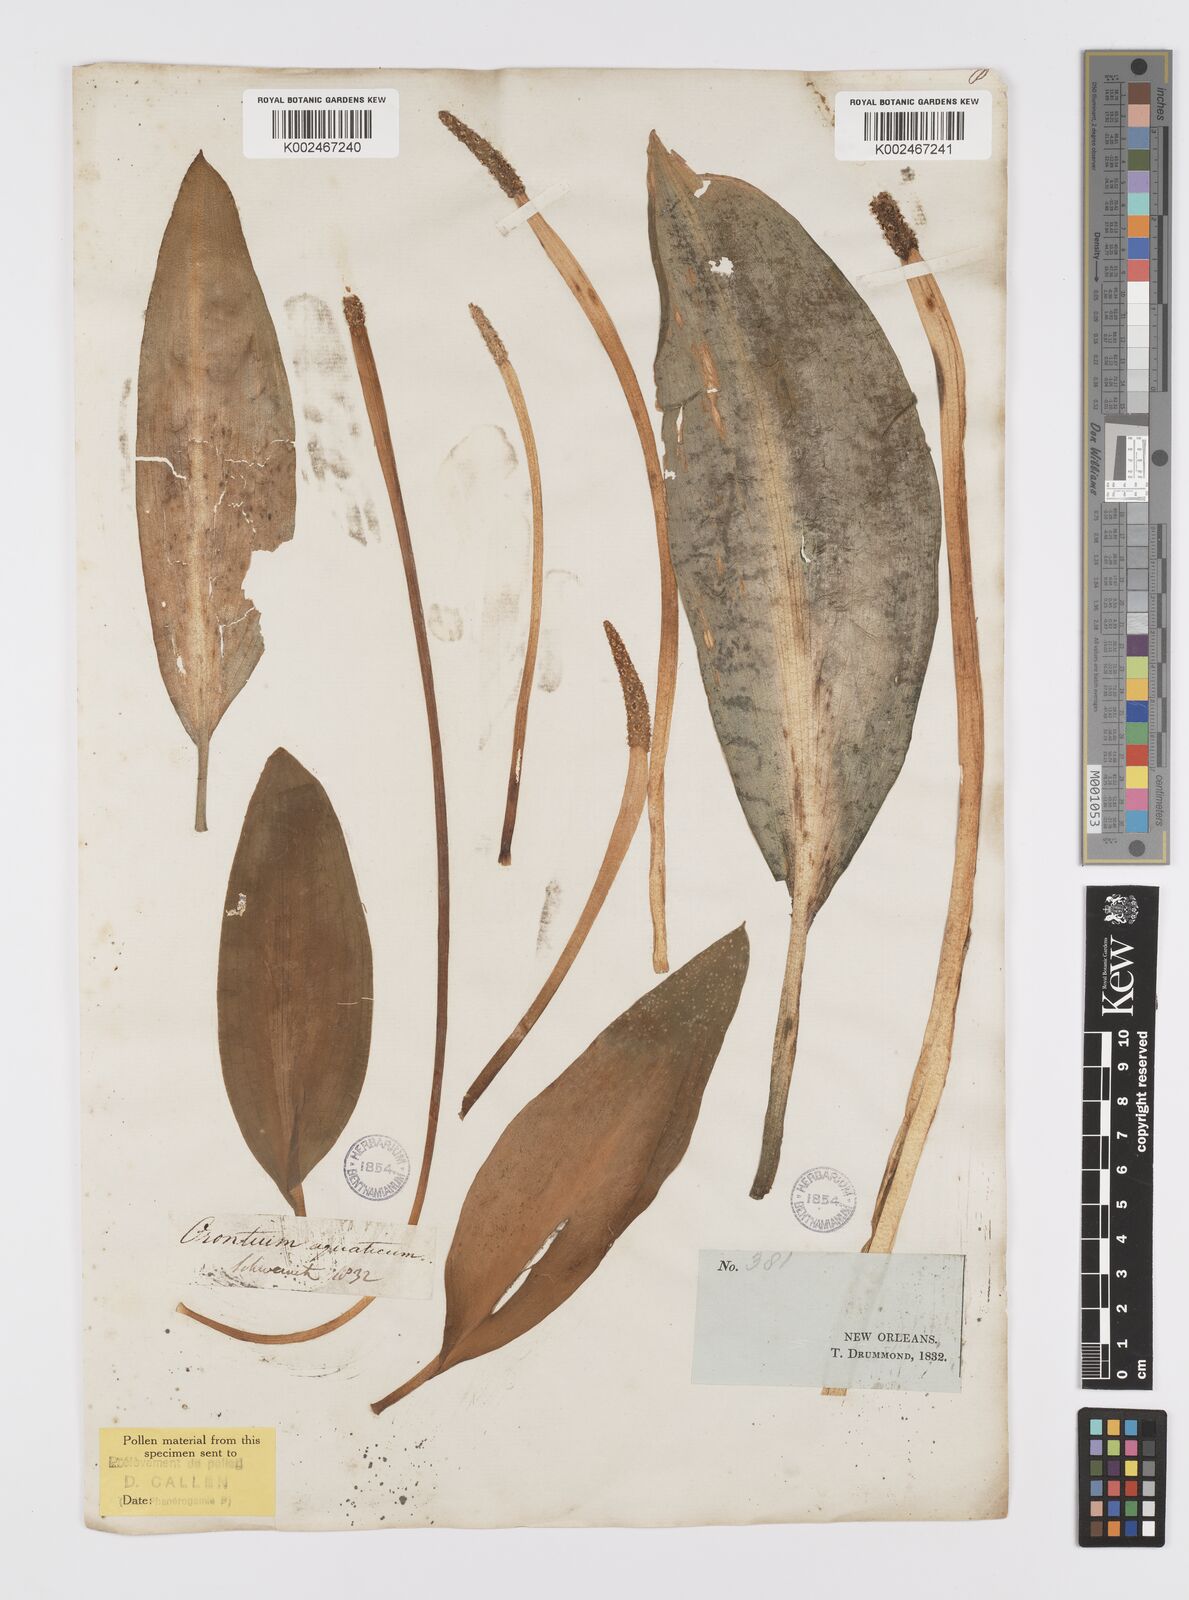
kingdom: Plantae
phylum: Tracheophyta
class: Liliopsida
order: Alismatales
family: Araceae
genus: Orontium
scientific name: Orontium aquaticum
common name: Golden-club
